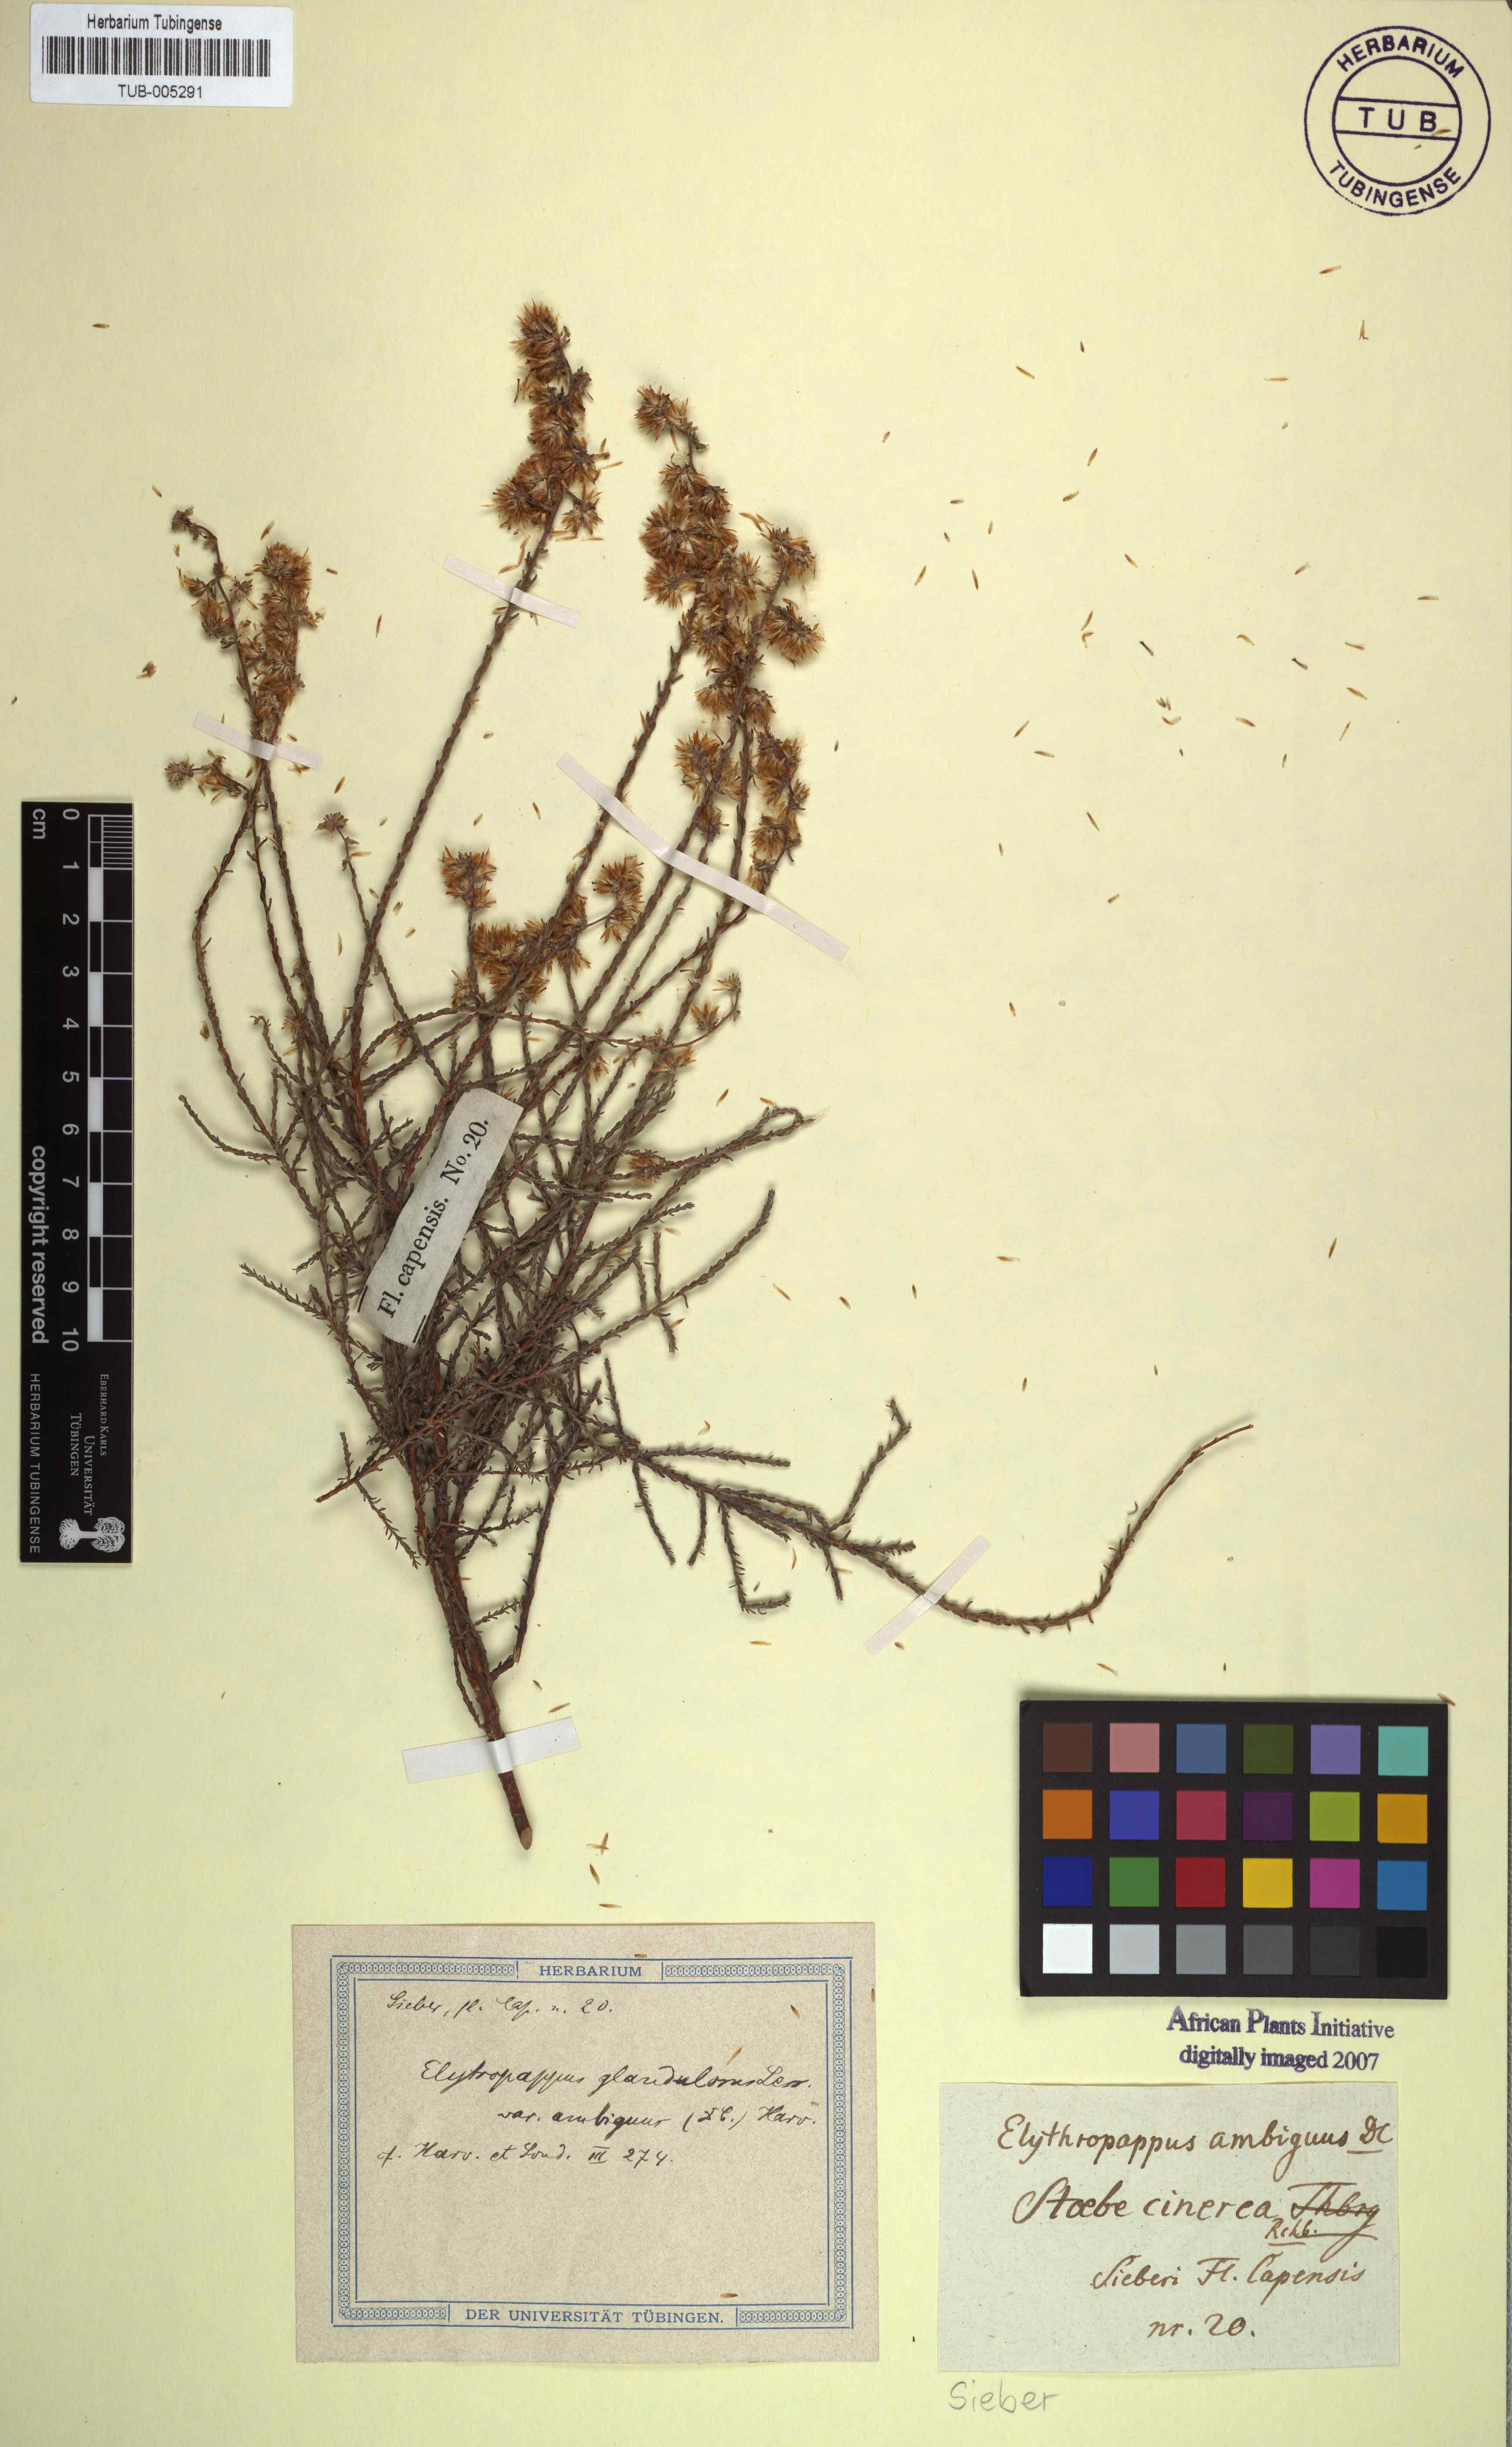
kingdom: Plantae
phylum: Tracheophyta
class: Magnoliopsida
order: Asterales
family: Asteraceae
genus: Myrovernix
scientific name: Myrovernix gnaphaloides
